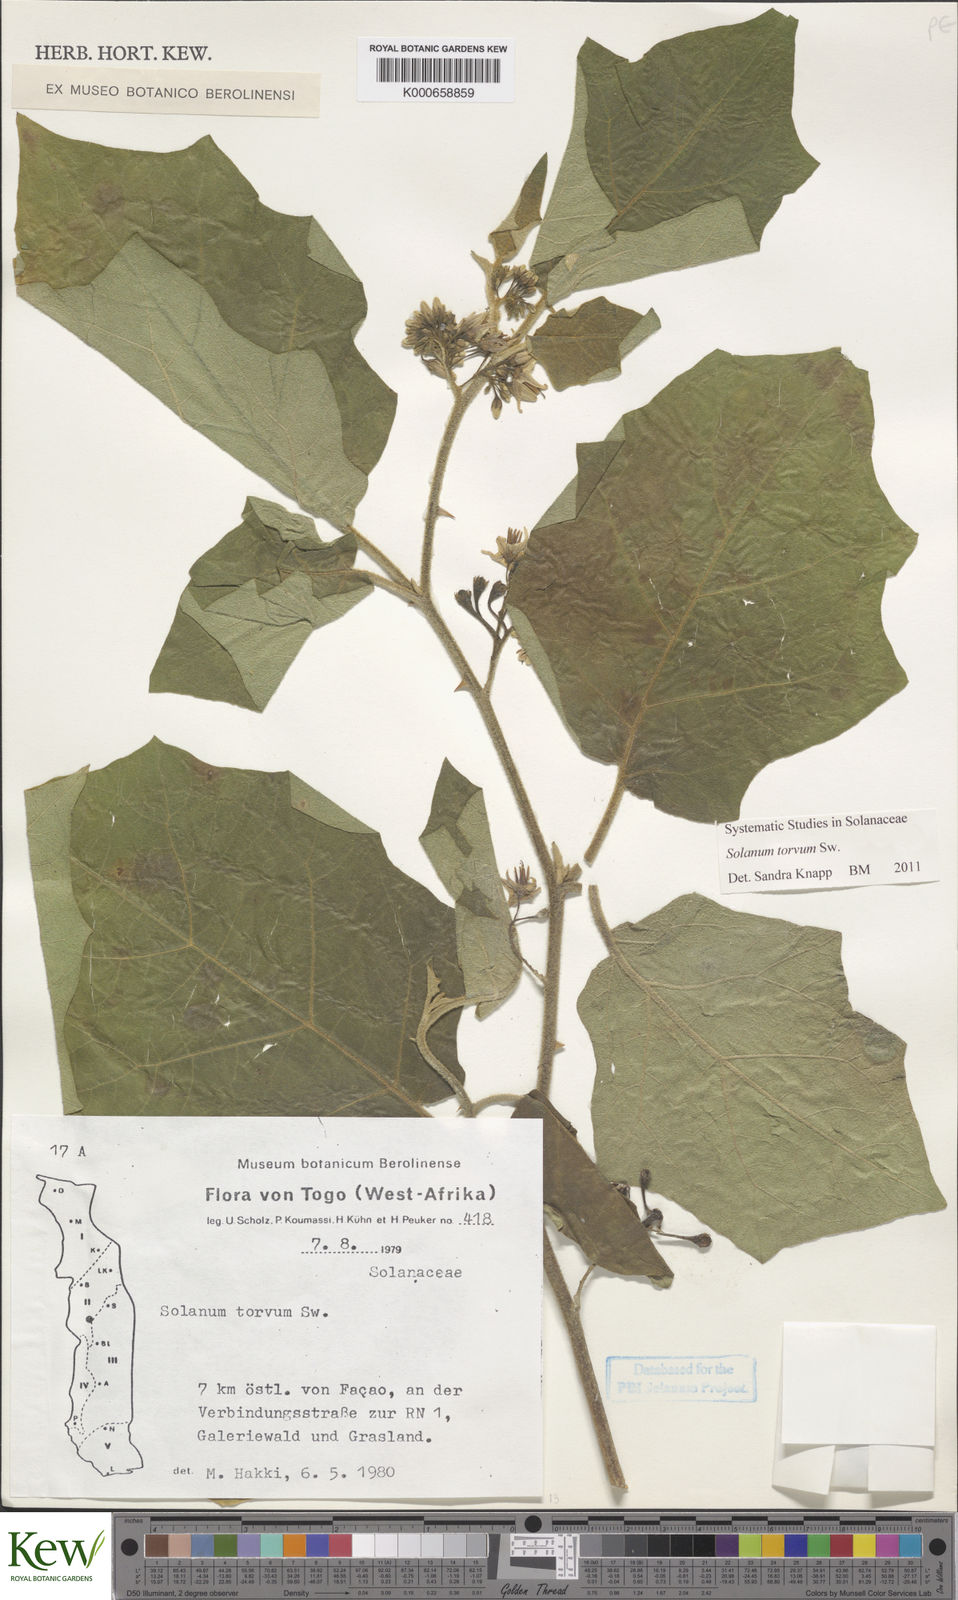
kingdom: Plantae
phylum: Tracheophyta
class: Magnoliopsida
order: Solanales
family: Solanaceae
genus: Solanum
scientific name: Solanum torvum
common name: Turkey berry
